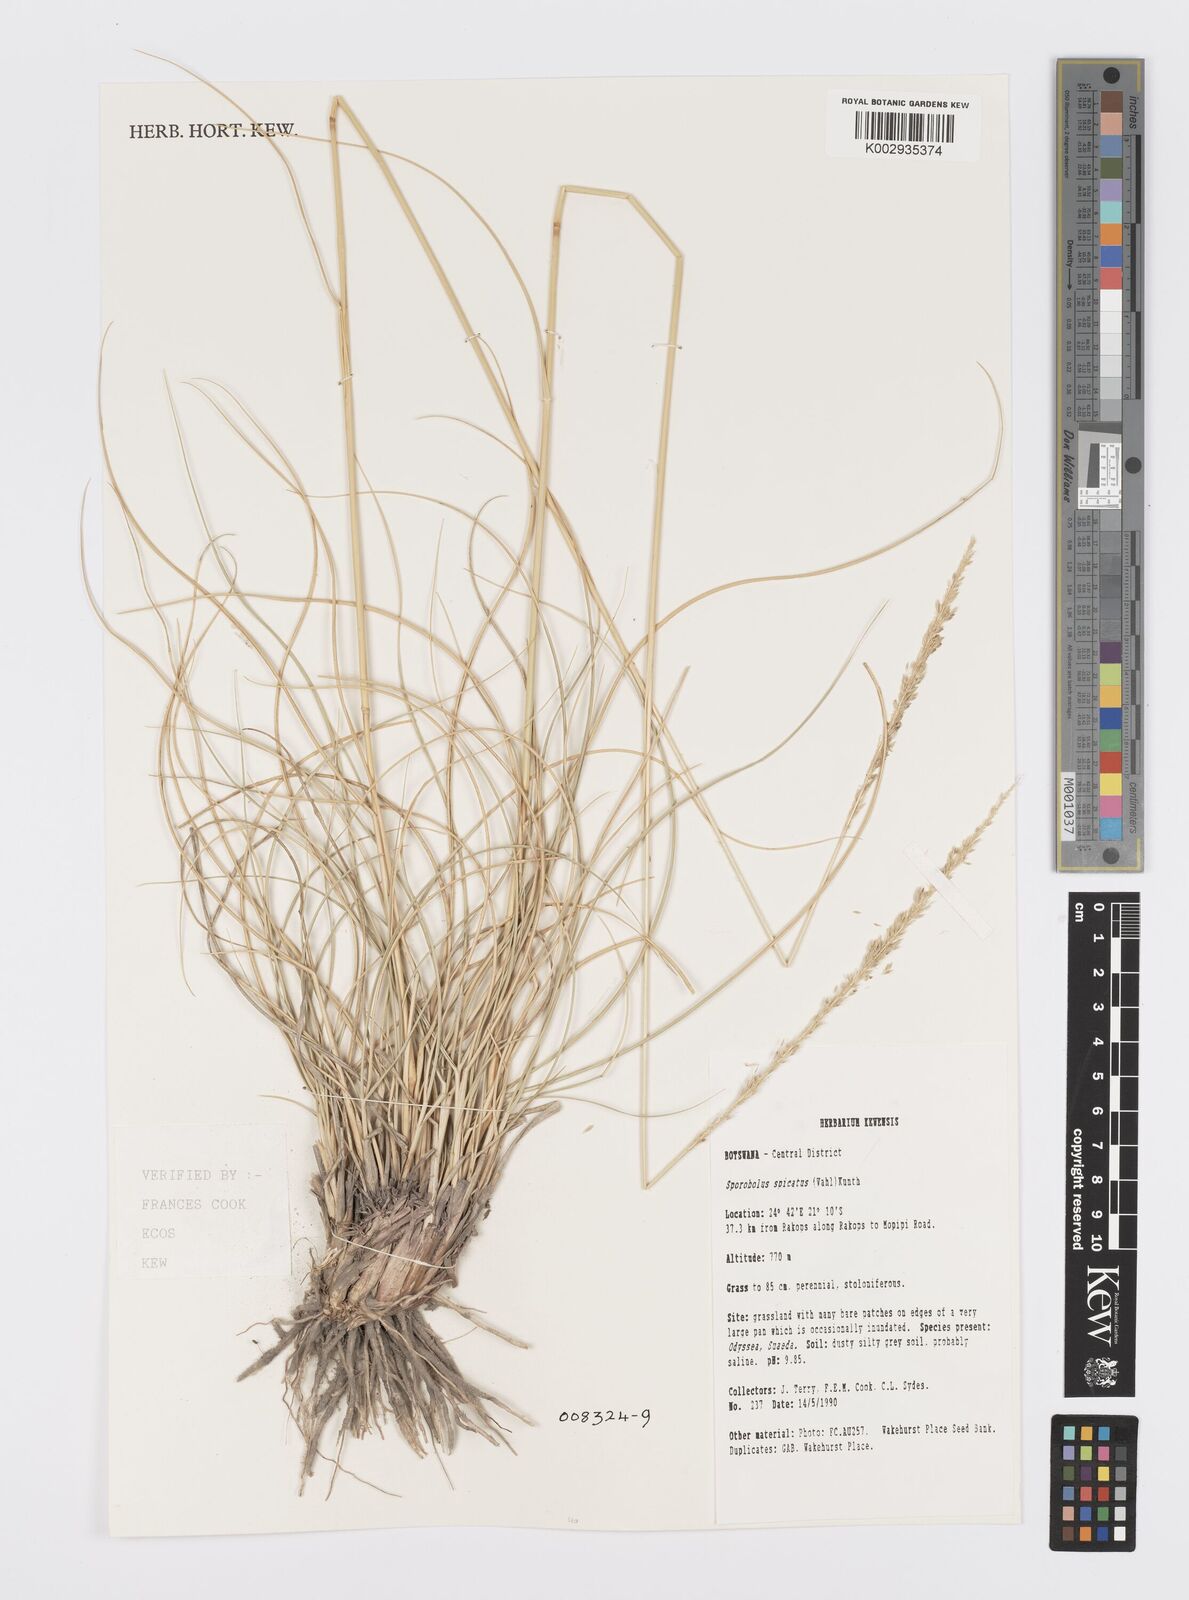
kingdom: Plantae
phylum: Tracheophyta
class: Liliopsida
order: Poales
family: Poaceae
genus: Sporobolus
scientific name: Sporobolus spicatus
